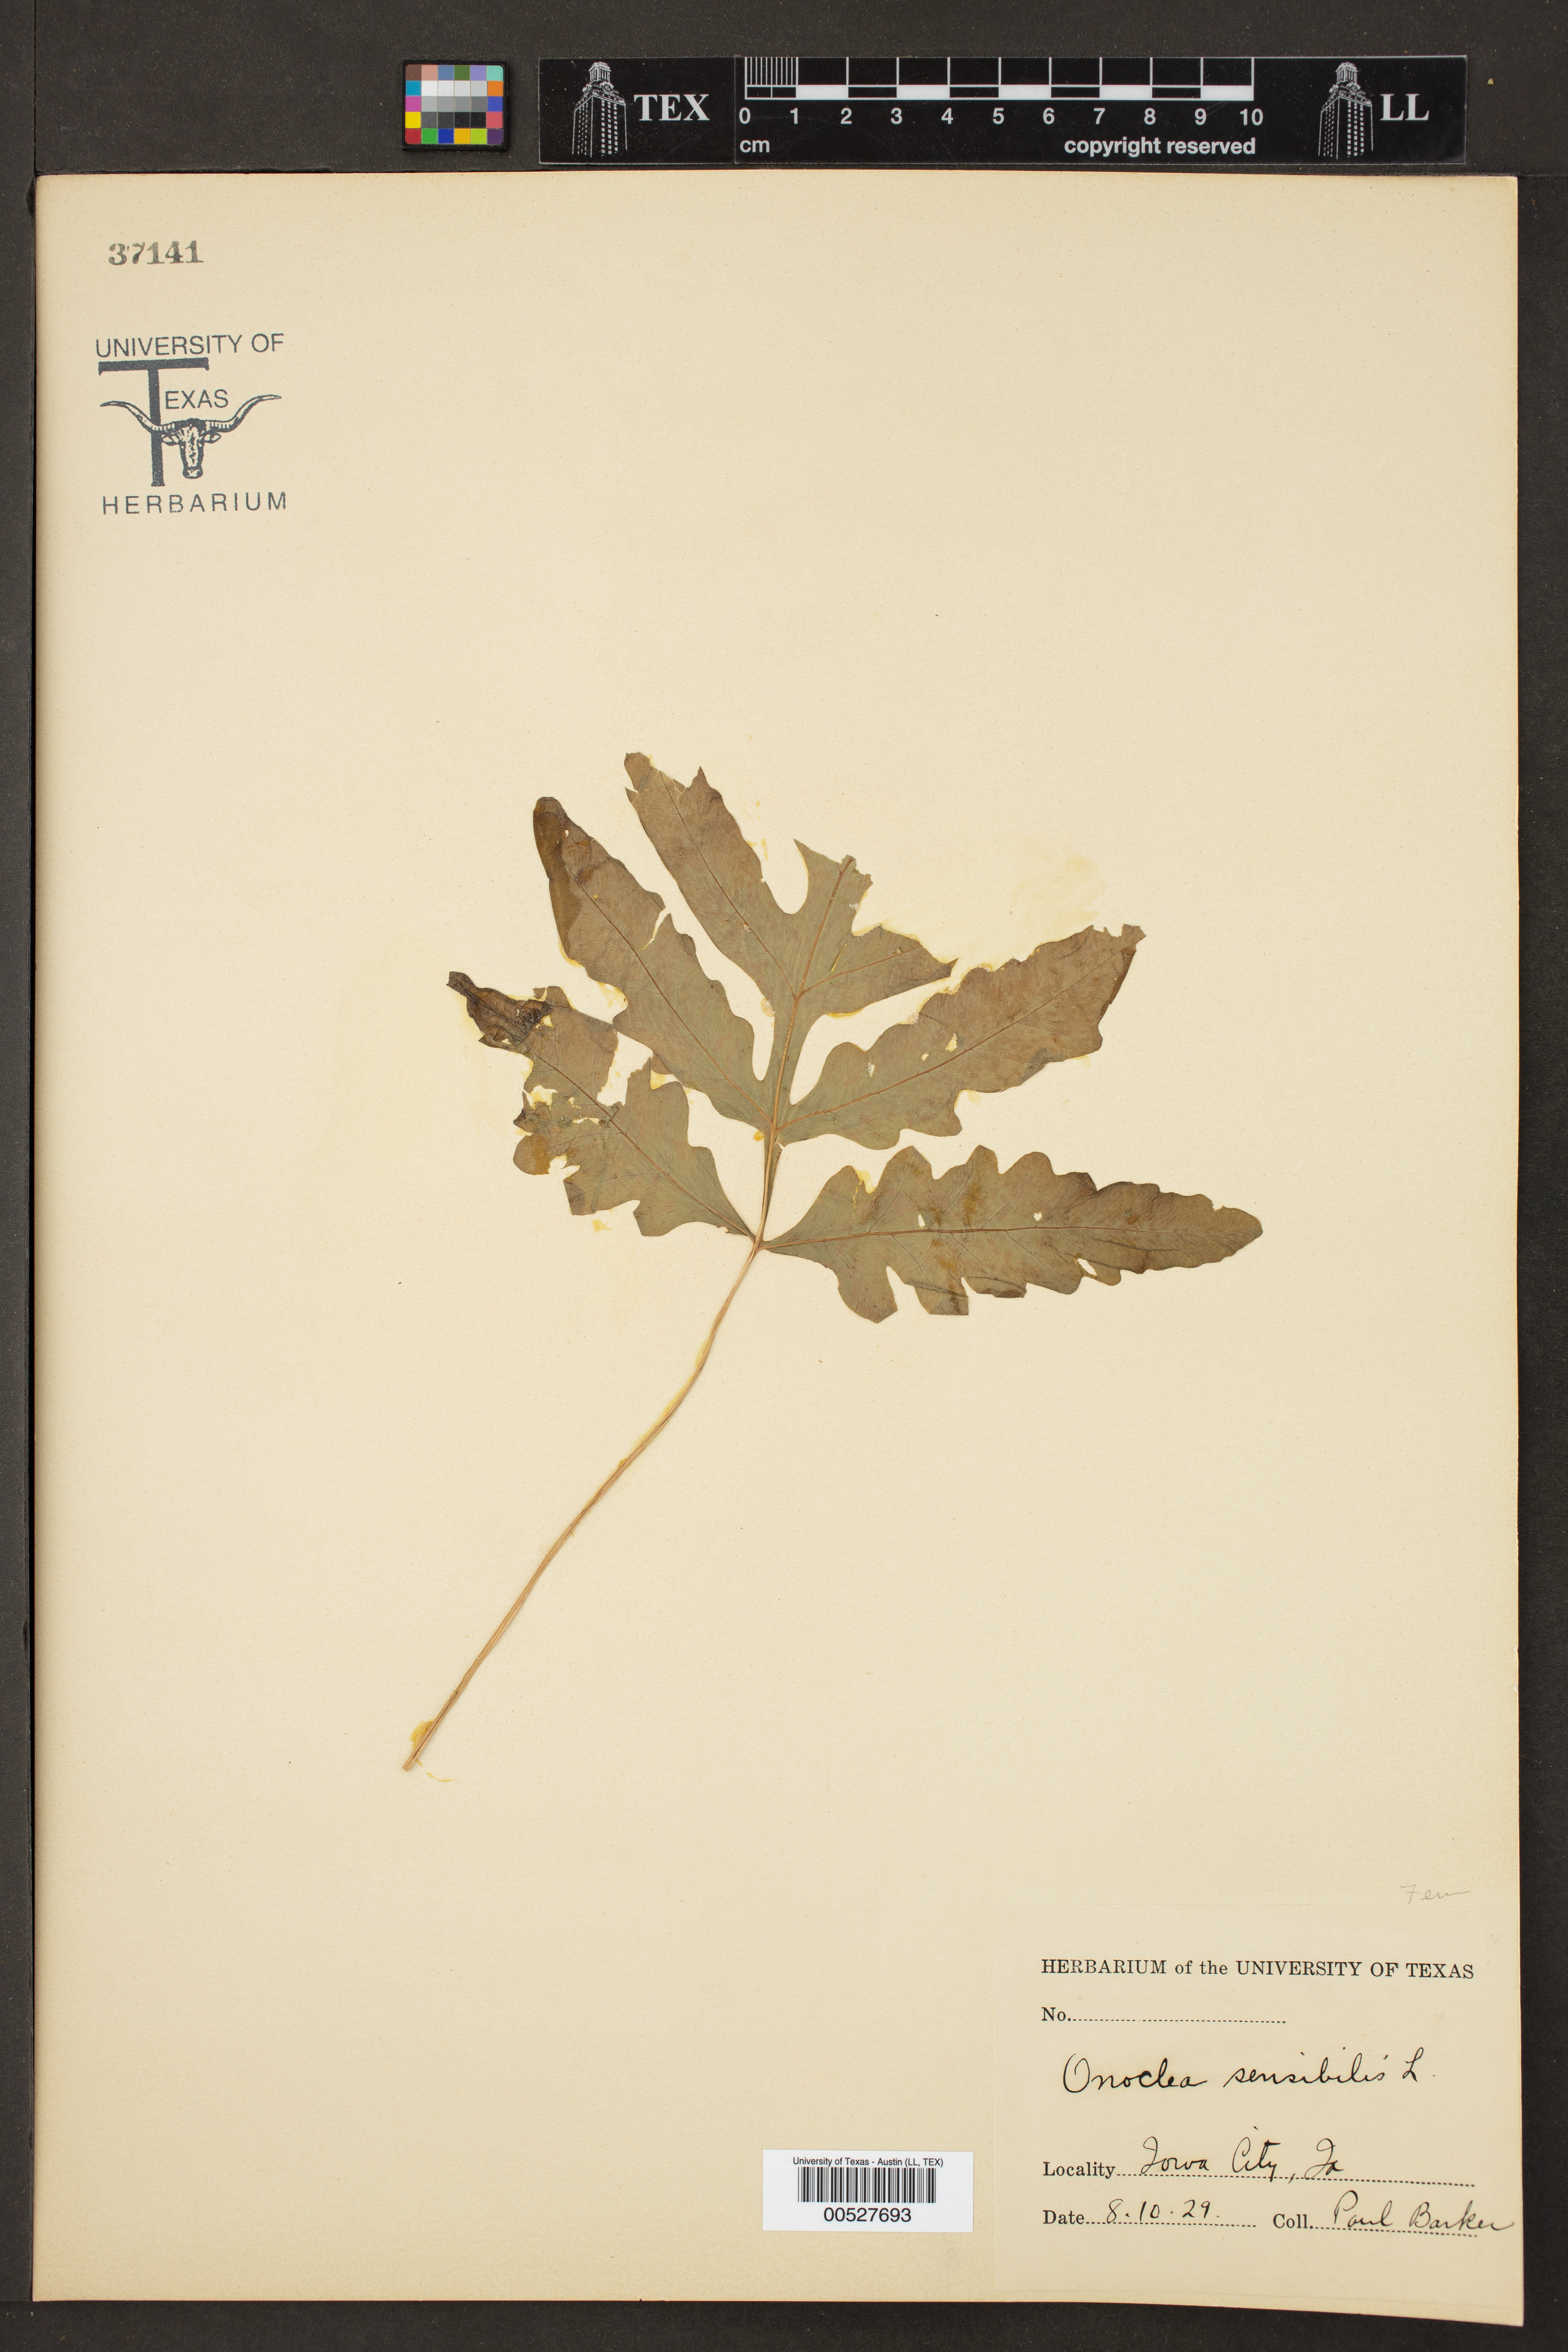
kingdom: Plantae
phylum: Tracheophyta
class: Polypodiopsida
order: Polypodiales
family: Onocleaceae
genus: Onoclea
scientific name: Onoclea sensibilis
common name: Sensitive fern
